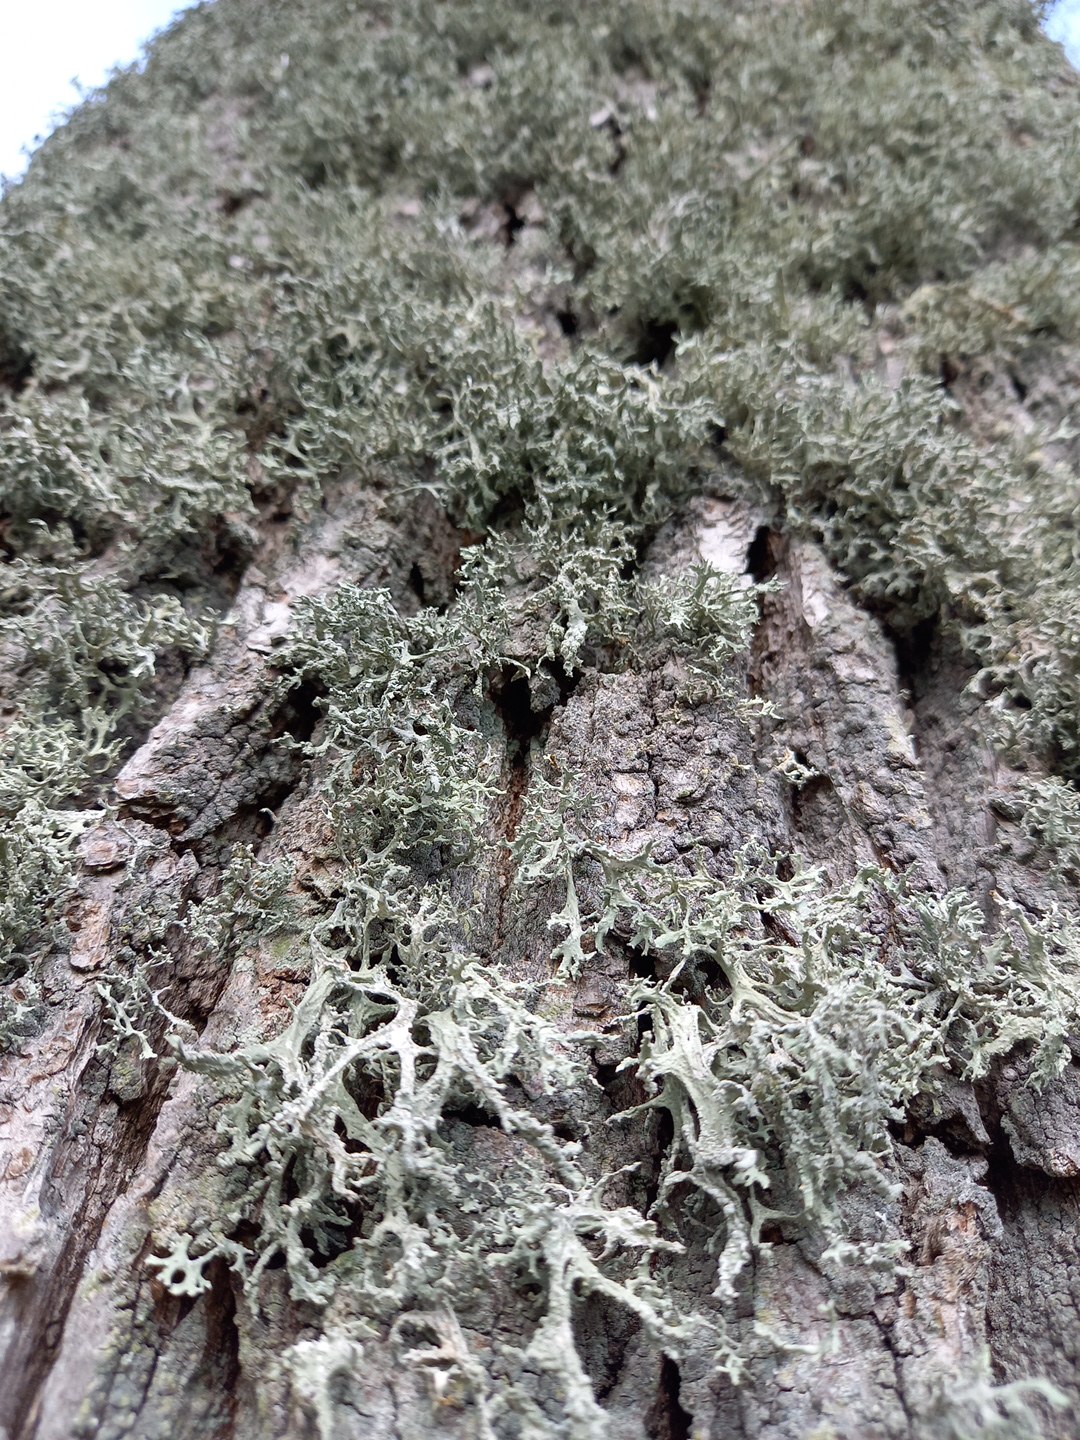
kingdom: Fungi
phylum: Ascomycota
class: Lecanoromycetes
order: Lecanorales
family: Parmeliaceae
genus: Evernia
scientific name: Evernia prunastri
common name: almindelig slåenlav
